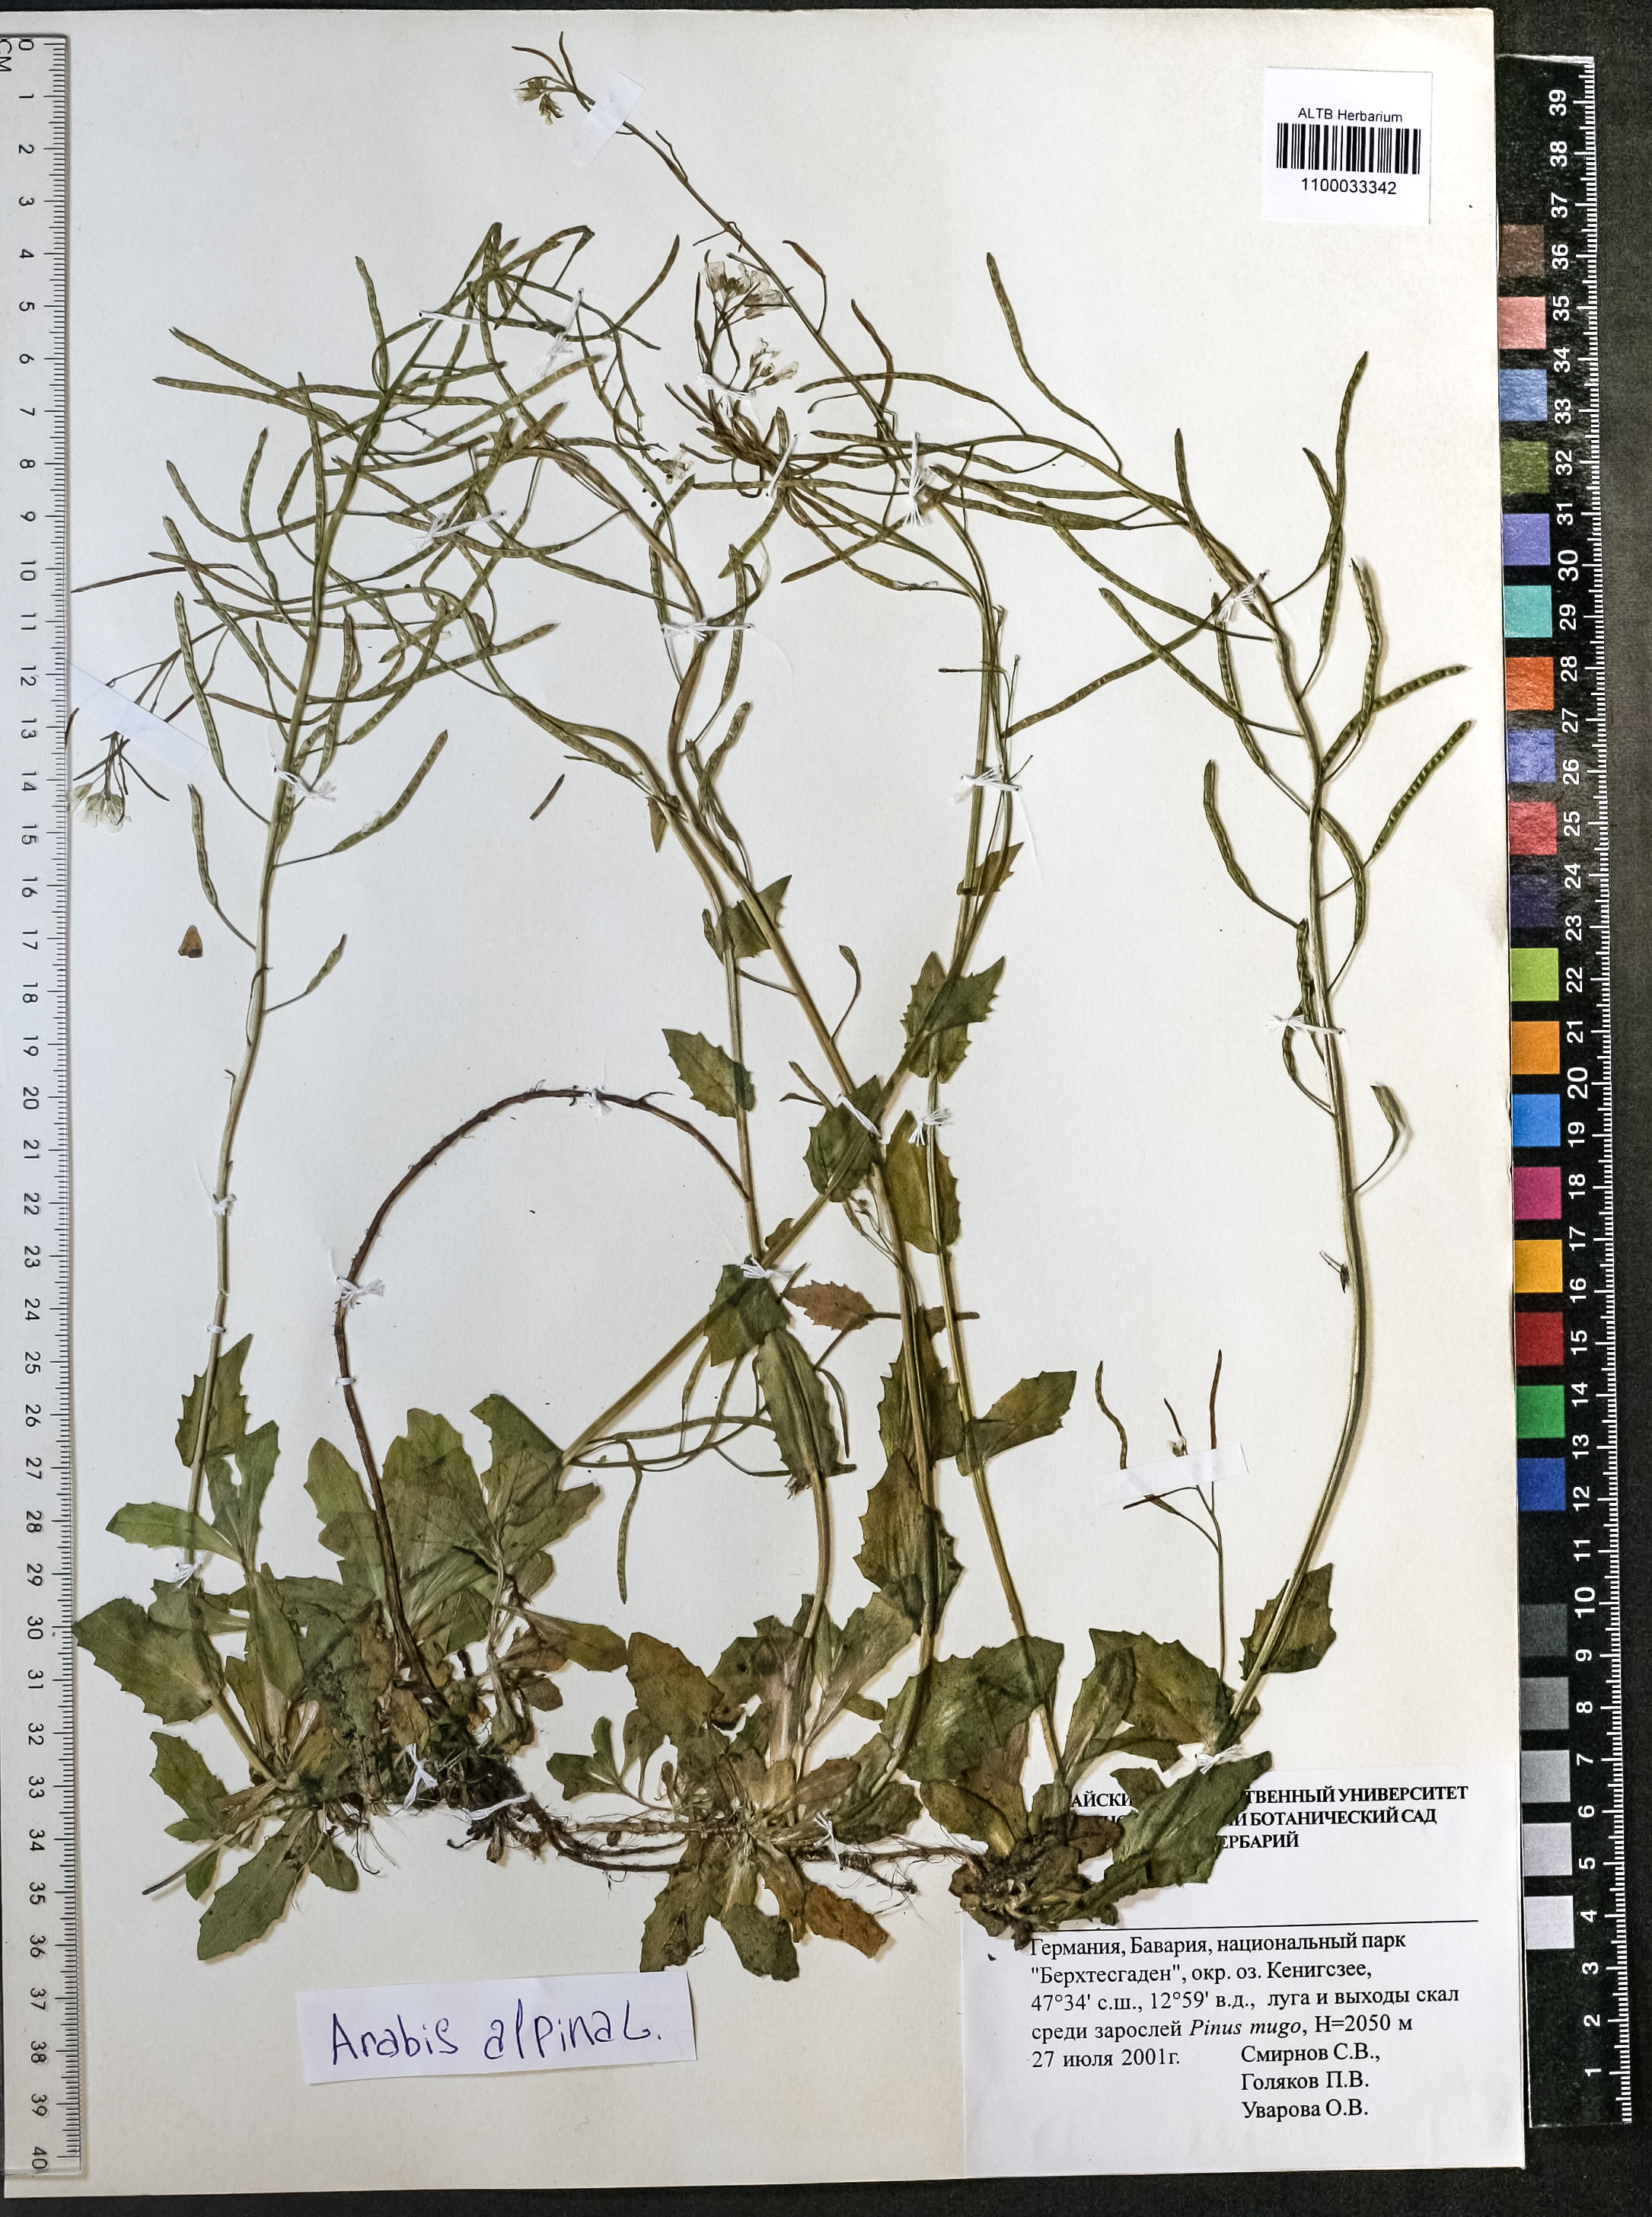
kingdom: Plantae
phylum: Tracheophyta
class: Magnoliopsida
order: Brassicales
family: Brassicaceae
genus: Arabis
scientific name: Arabis alpina
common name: Alpine rock-cress
